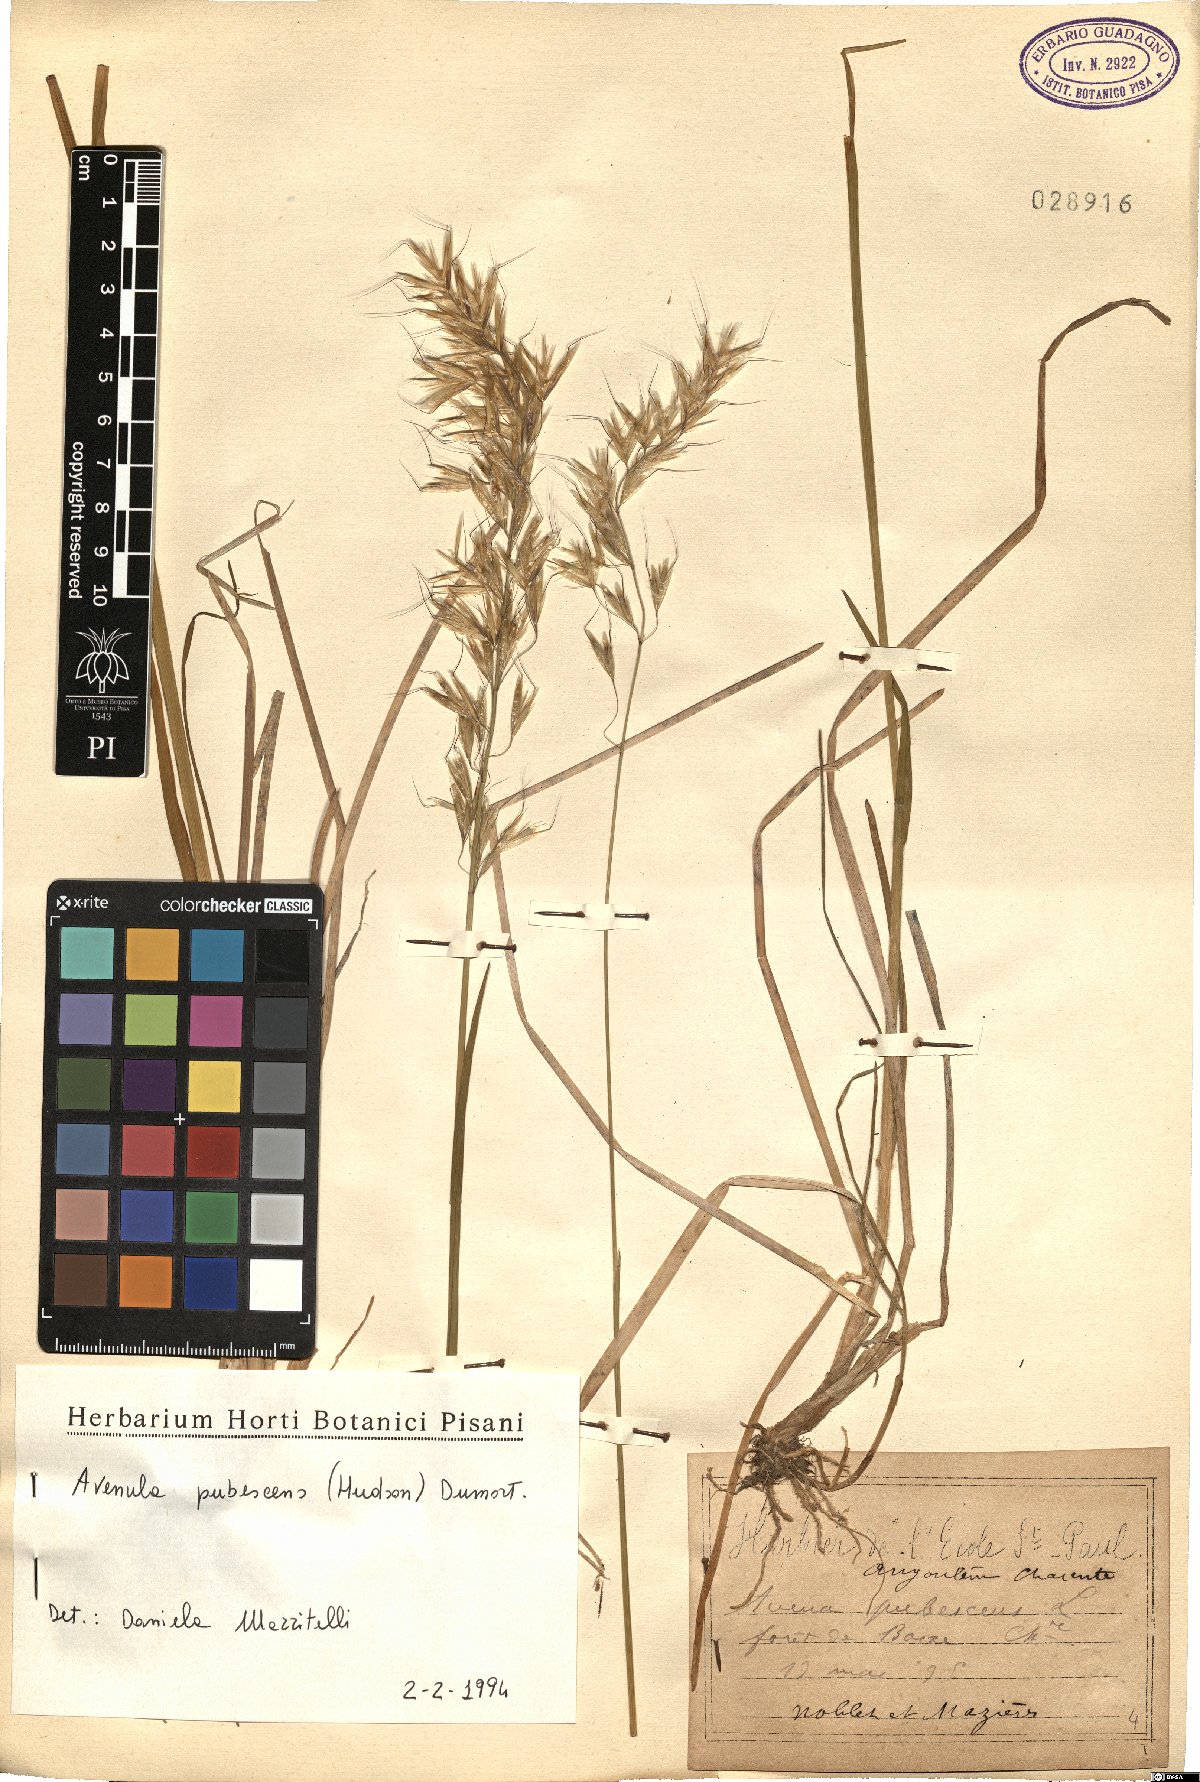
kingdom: Plantae
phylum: Tracheophyta
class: Liliopsida
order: Poales
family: Poaceae
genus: Avenula
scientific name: Avenula pubescens
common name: Downy alpine oatgrass
